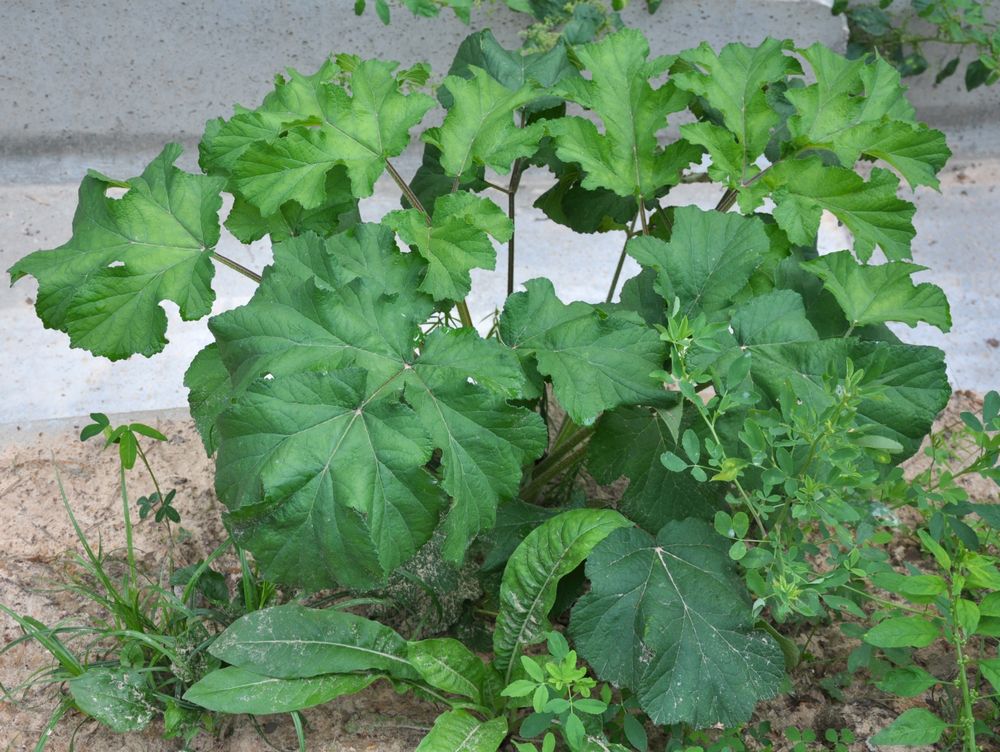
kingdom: Plantae
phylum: Tracheophyta
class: Magnoliopsida
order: Apiales
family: Apiaceae
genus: Heracleum
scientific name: Heracleum sosnowskyi
